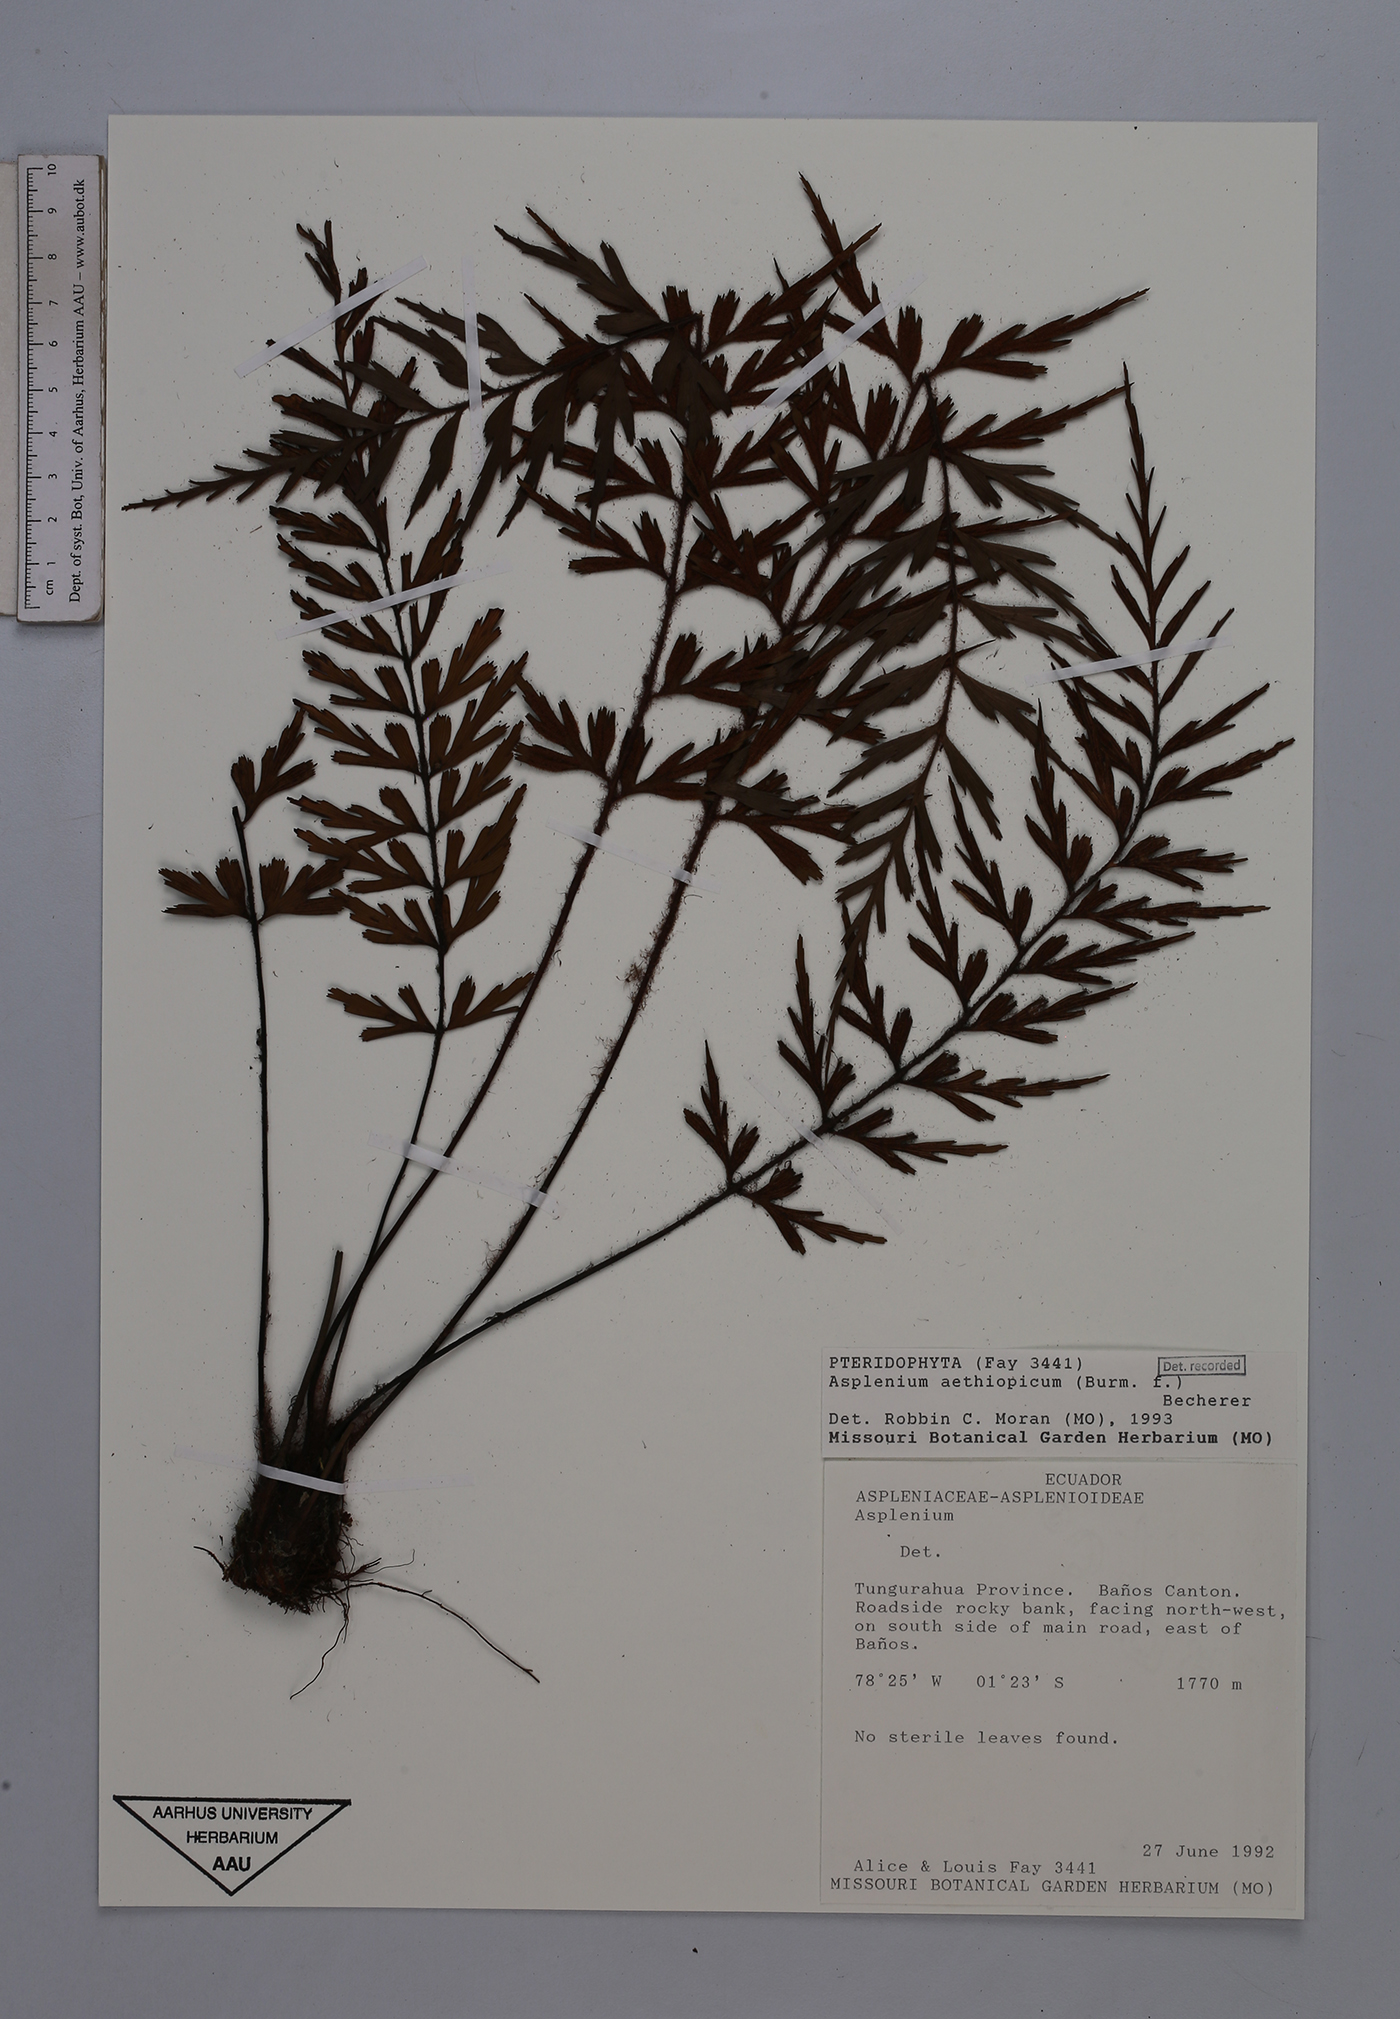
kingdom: Plantae
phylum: Tracheophyta
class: Polypodiopsida
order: Polypodiales
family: Aspleniaceae
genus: Asplenium
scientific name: Asplenium aethiopicum
